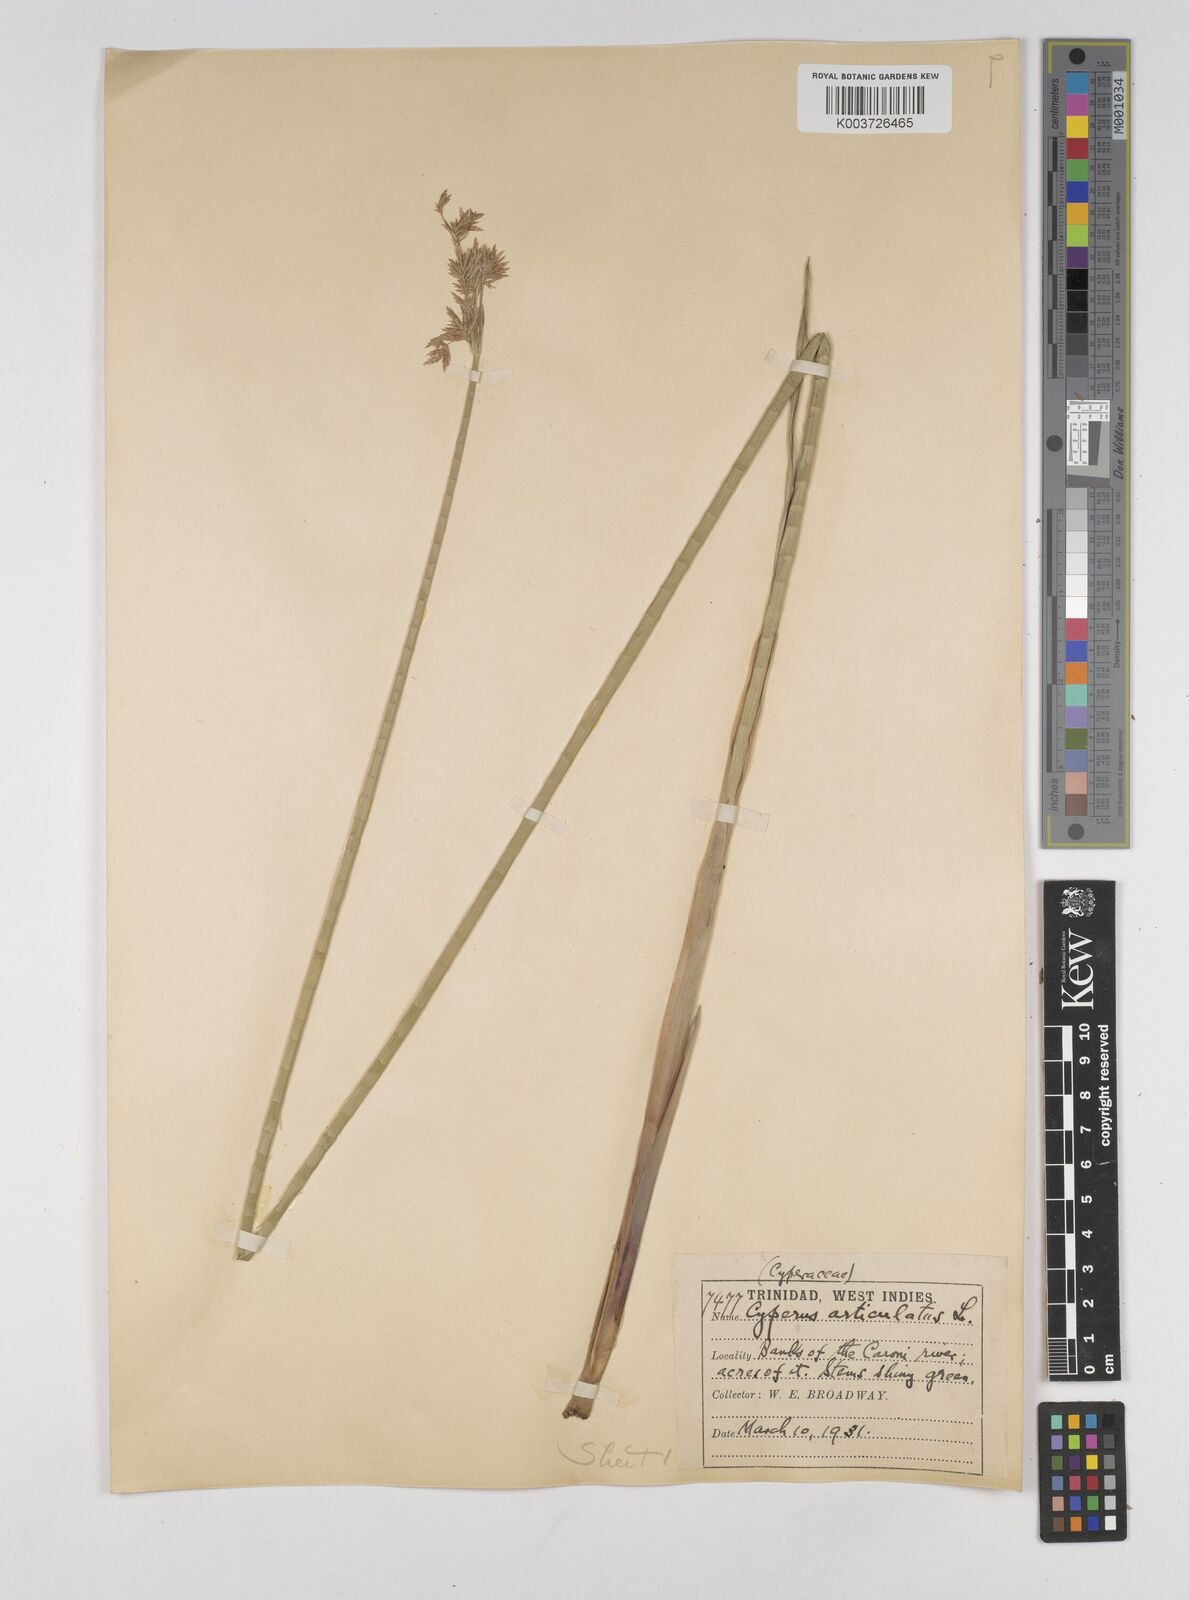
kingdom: Plantae
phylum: Tracheophyta
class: Liliopsida
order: Poales
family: Cyperaceae
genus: Cyperus
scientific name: Cyperus articulatus
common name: Jointed flatsedge
